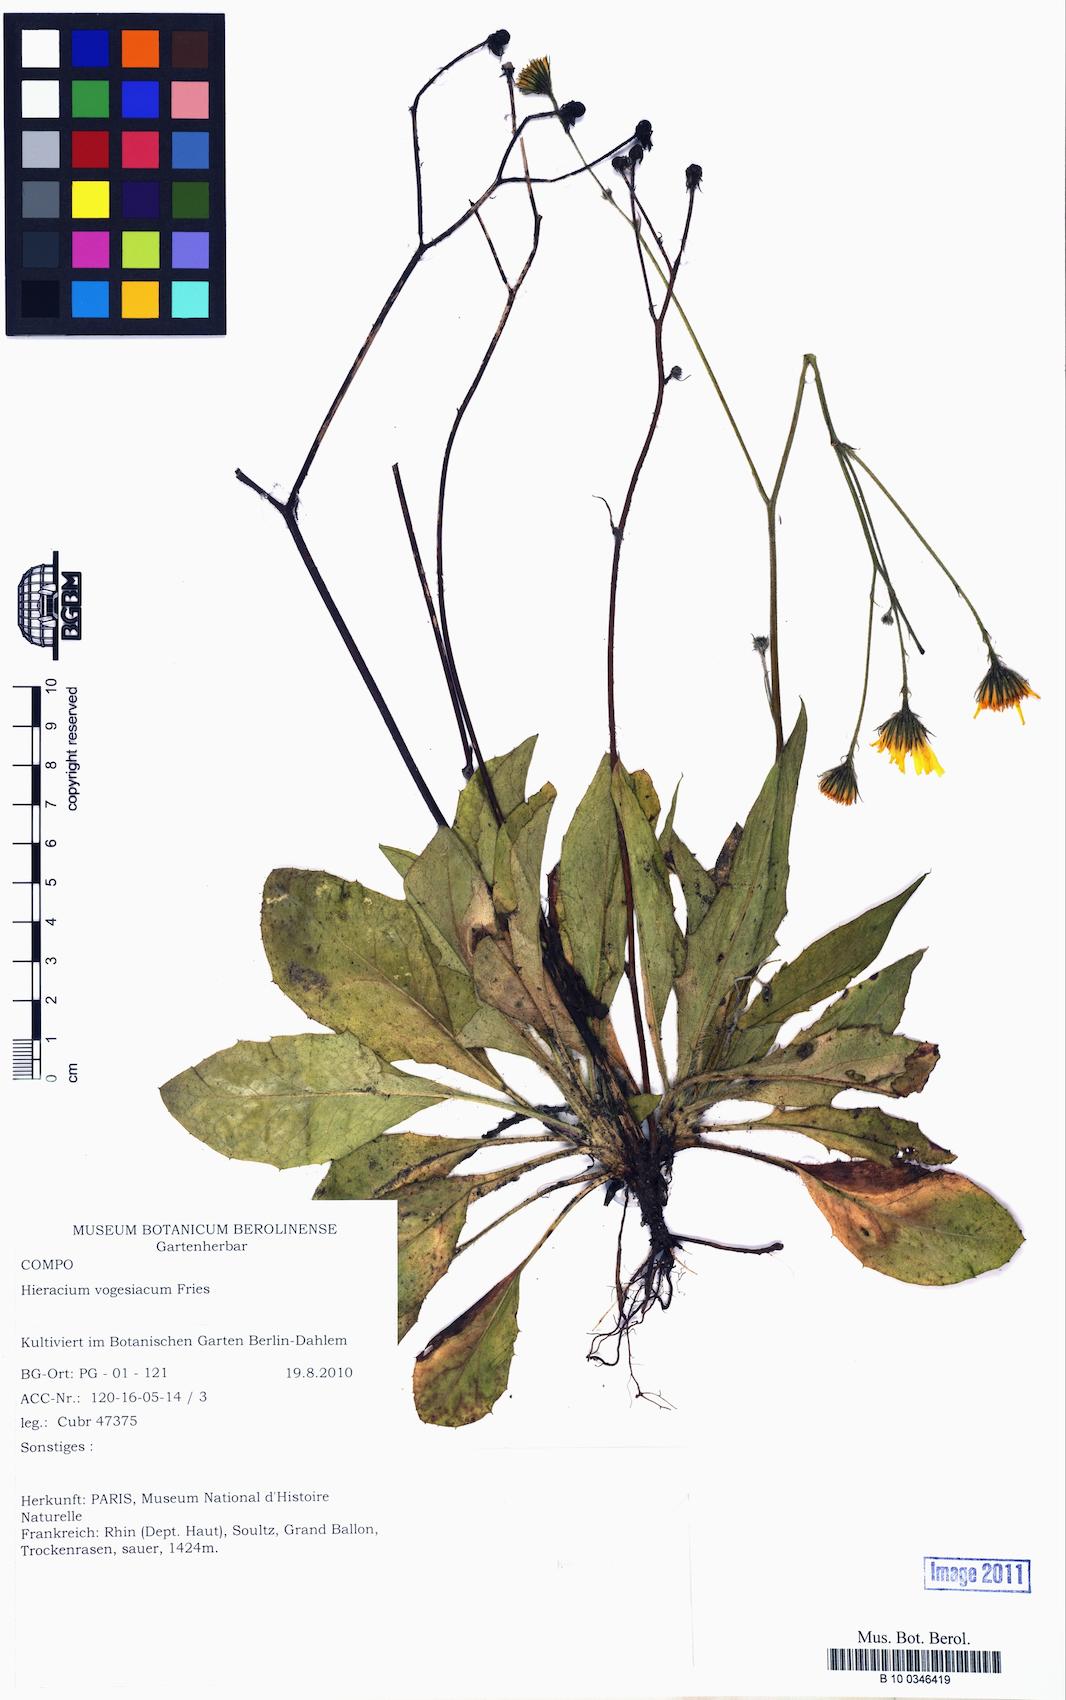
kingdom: Plantae
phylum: Tracheophyta
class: Magnoliopsida
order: Asterales
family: Asteraceae
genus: Hieracium
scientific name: Hieracium juranum
